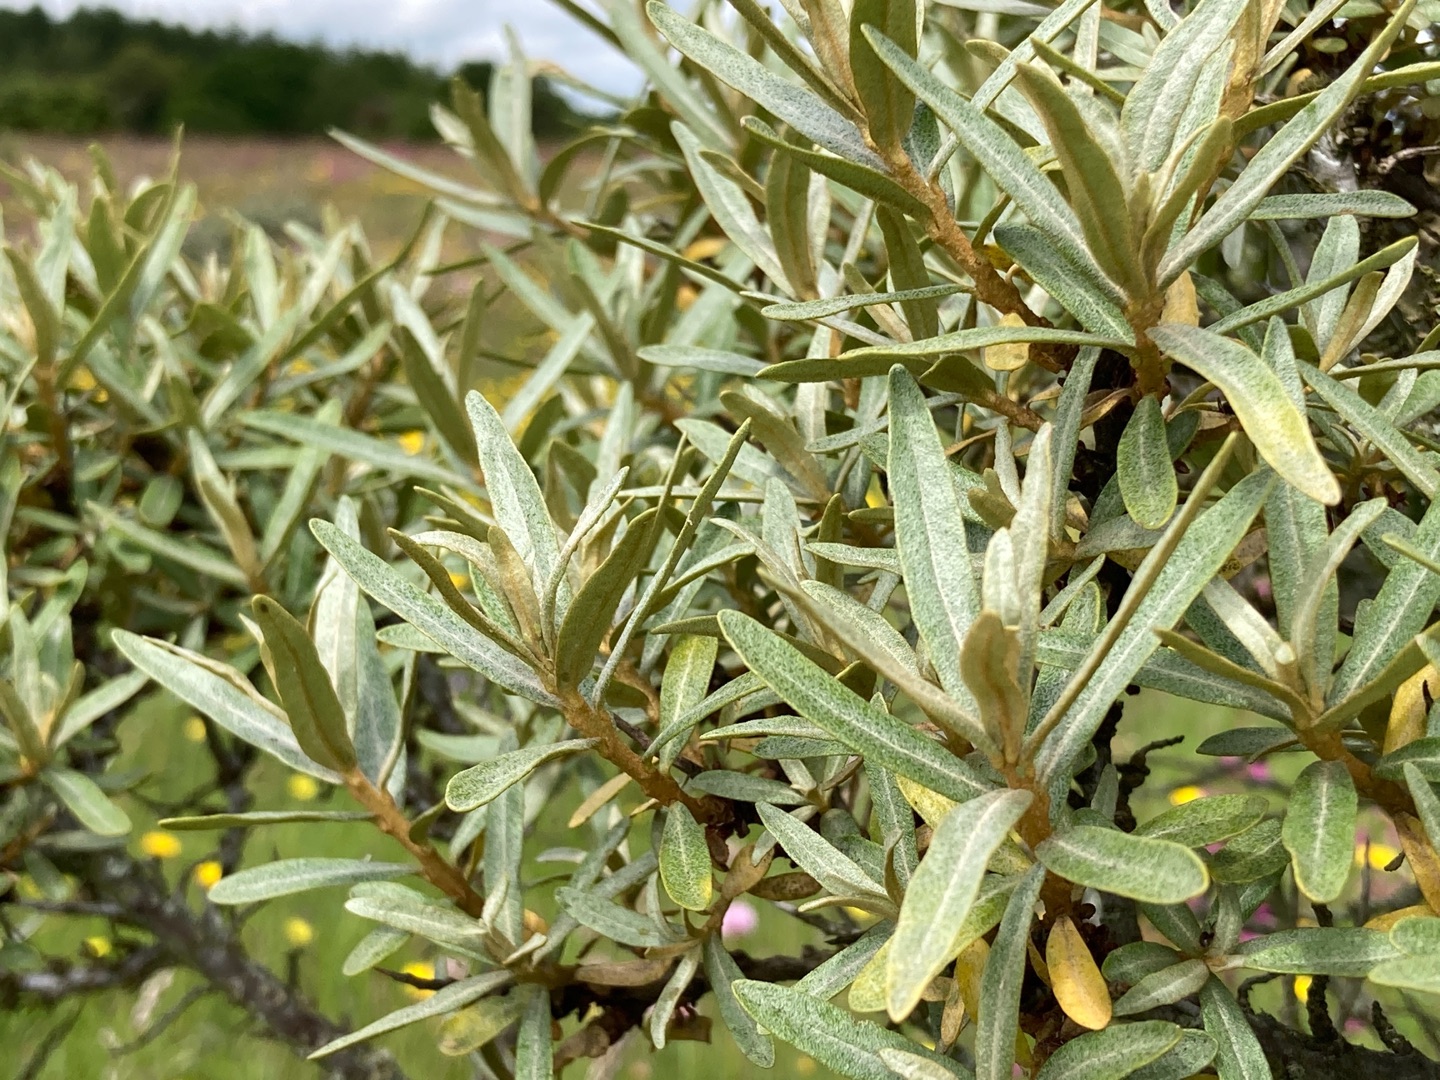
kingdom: Plantae
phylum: Tracheophyta
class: Magnoliopsida
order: Rosales
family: Elaeagnaceae
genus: Hippophae
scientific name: Hippophae rhamnoides
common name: Havtorn
